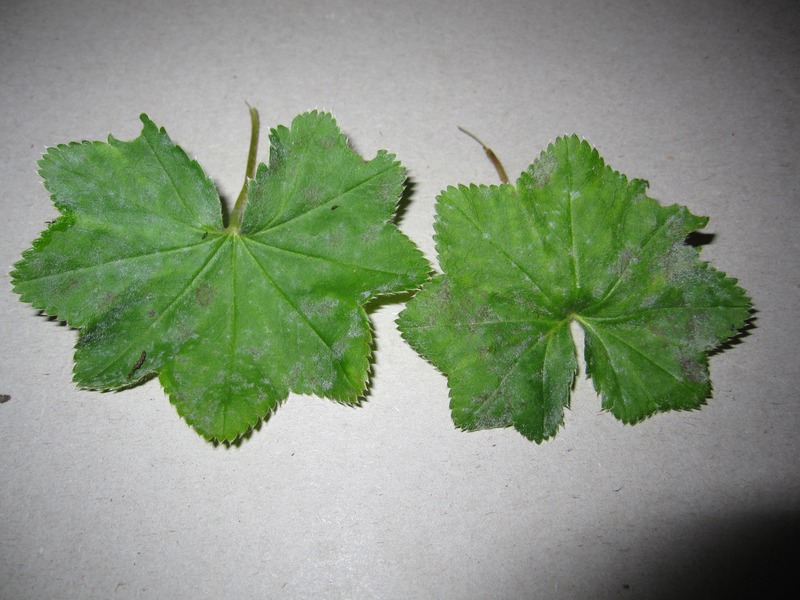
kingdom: Fungi
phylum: Ascomycota
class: Leotiomycetes
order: Helotiales
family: Erysiphaceae
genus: Podosphaera
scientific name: Podosphaera aphanis
